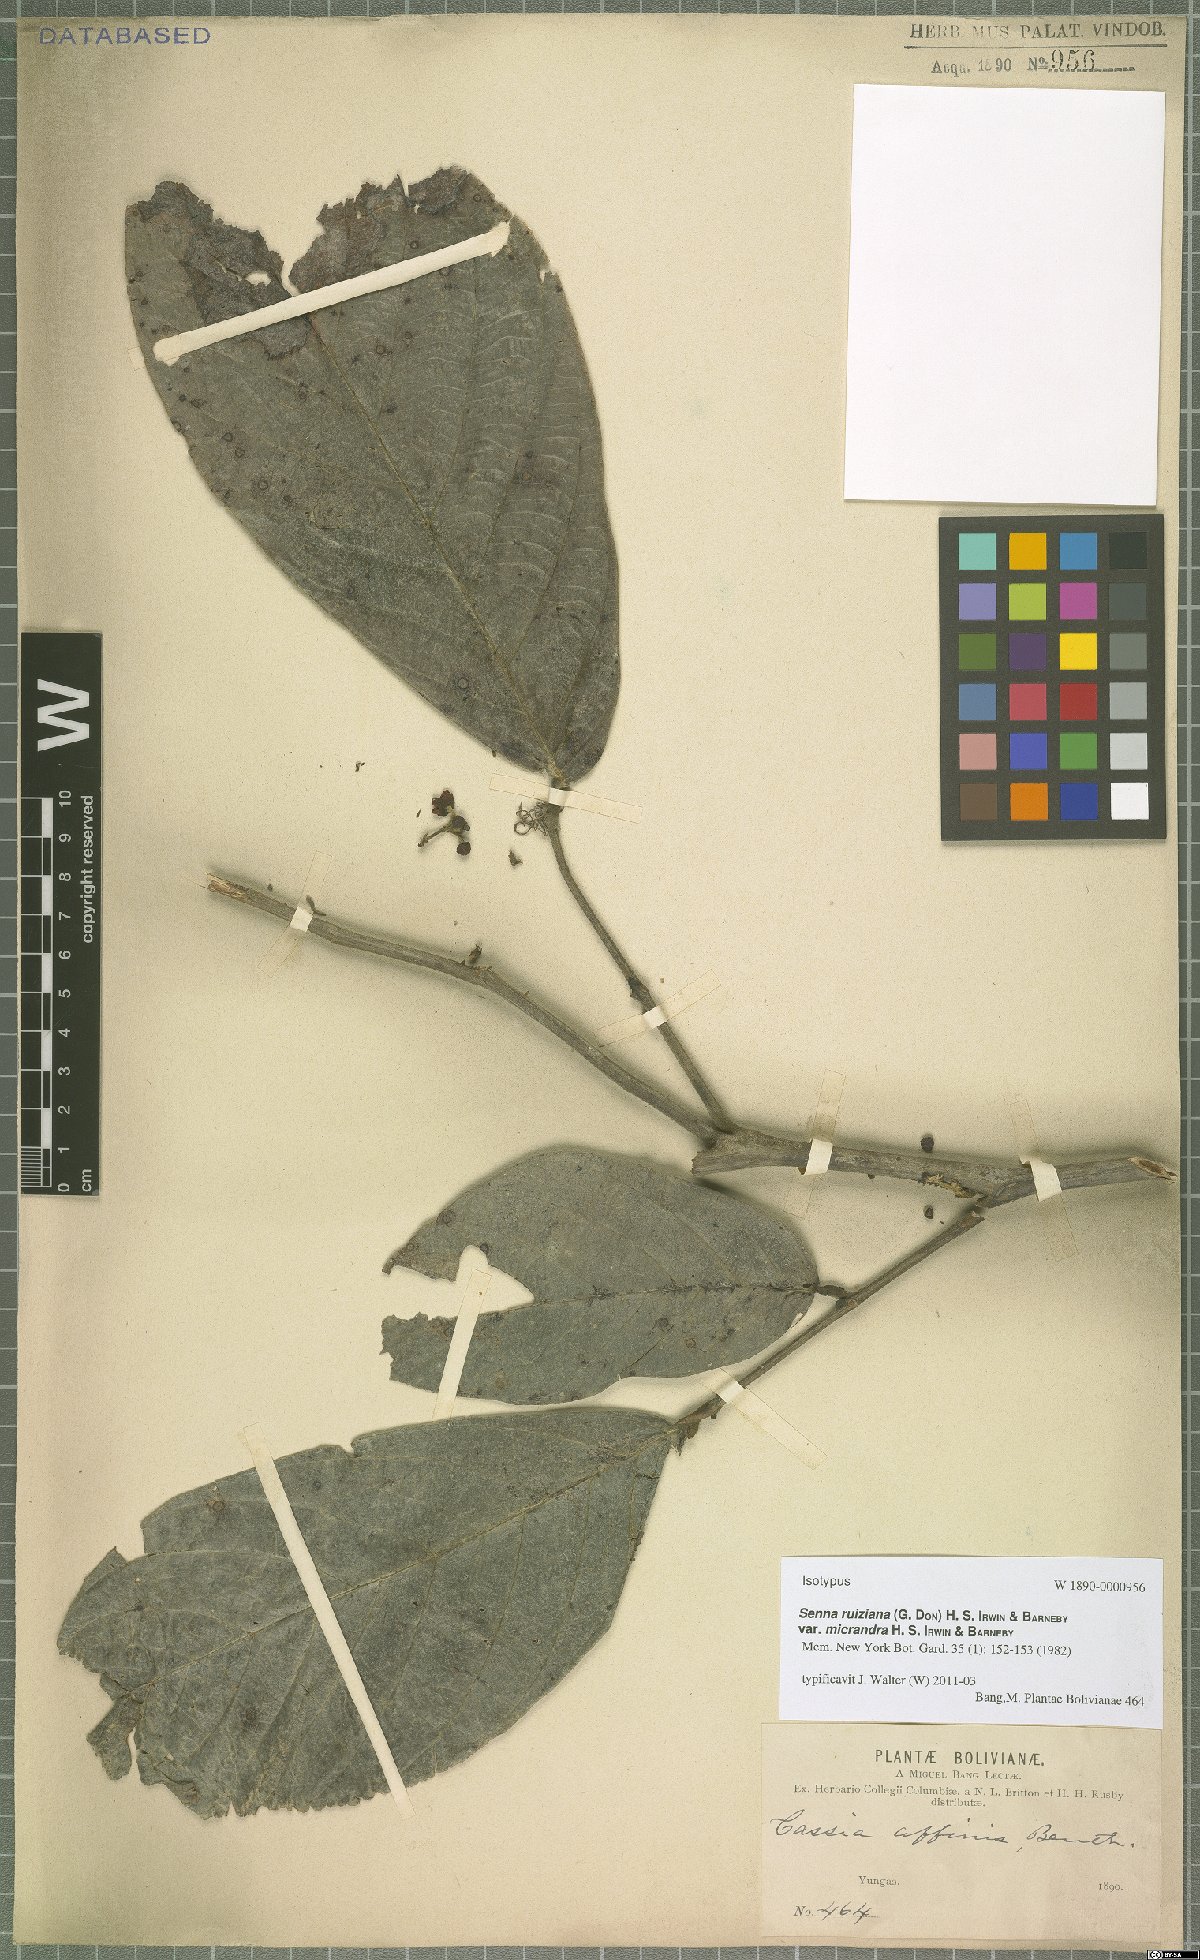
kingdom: Plantae
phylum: Tracheophyta
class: Magnoliopsida
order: Fabales
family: Fabaceae
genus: Senna
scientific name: Senna ruiziana
